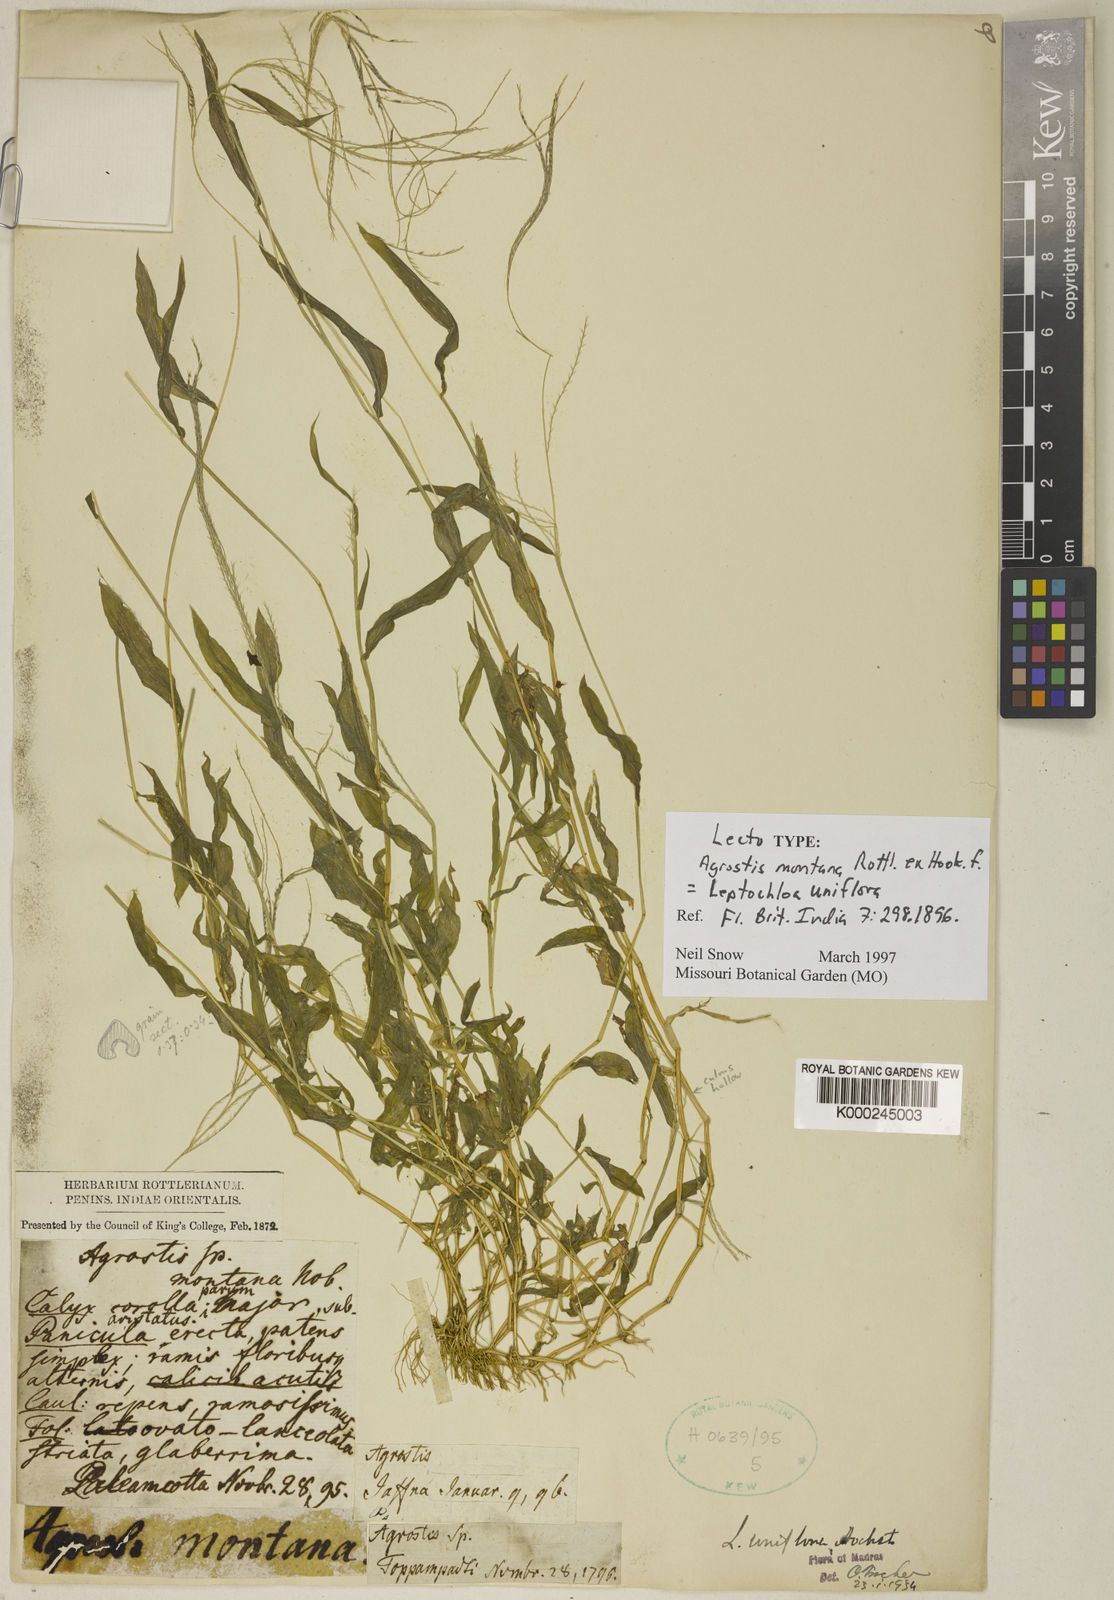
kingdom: Plantae
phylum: Tracheophyta
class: Liliopsida
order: Poales
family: Poaceae
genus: Trigonochloa
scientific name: Trigonochloa uniflora
